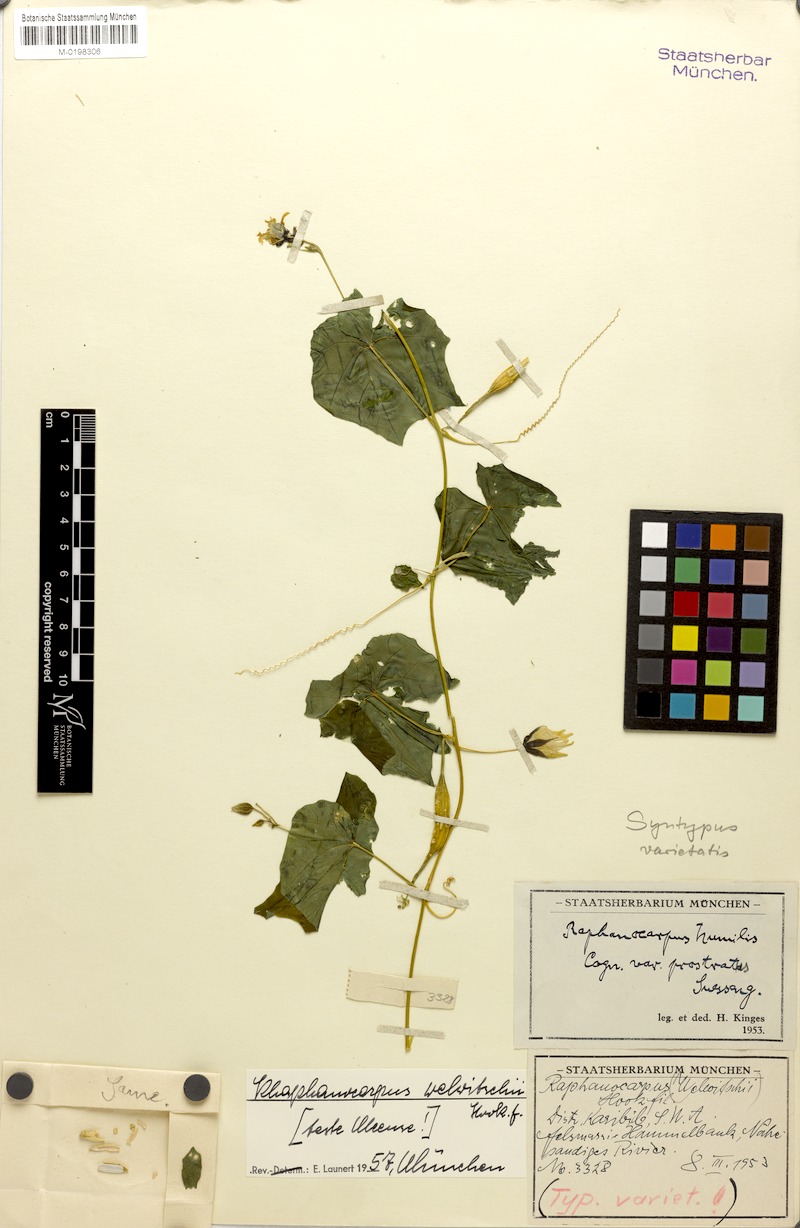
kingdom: Plantae
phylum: Tracheophyta
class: Magnoliopsida
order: Cucurbitales
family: Cucurbitaceae
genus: Momordica
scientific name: Momordica humilis
